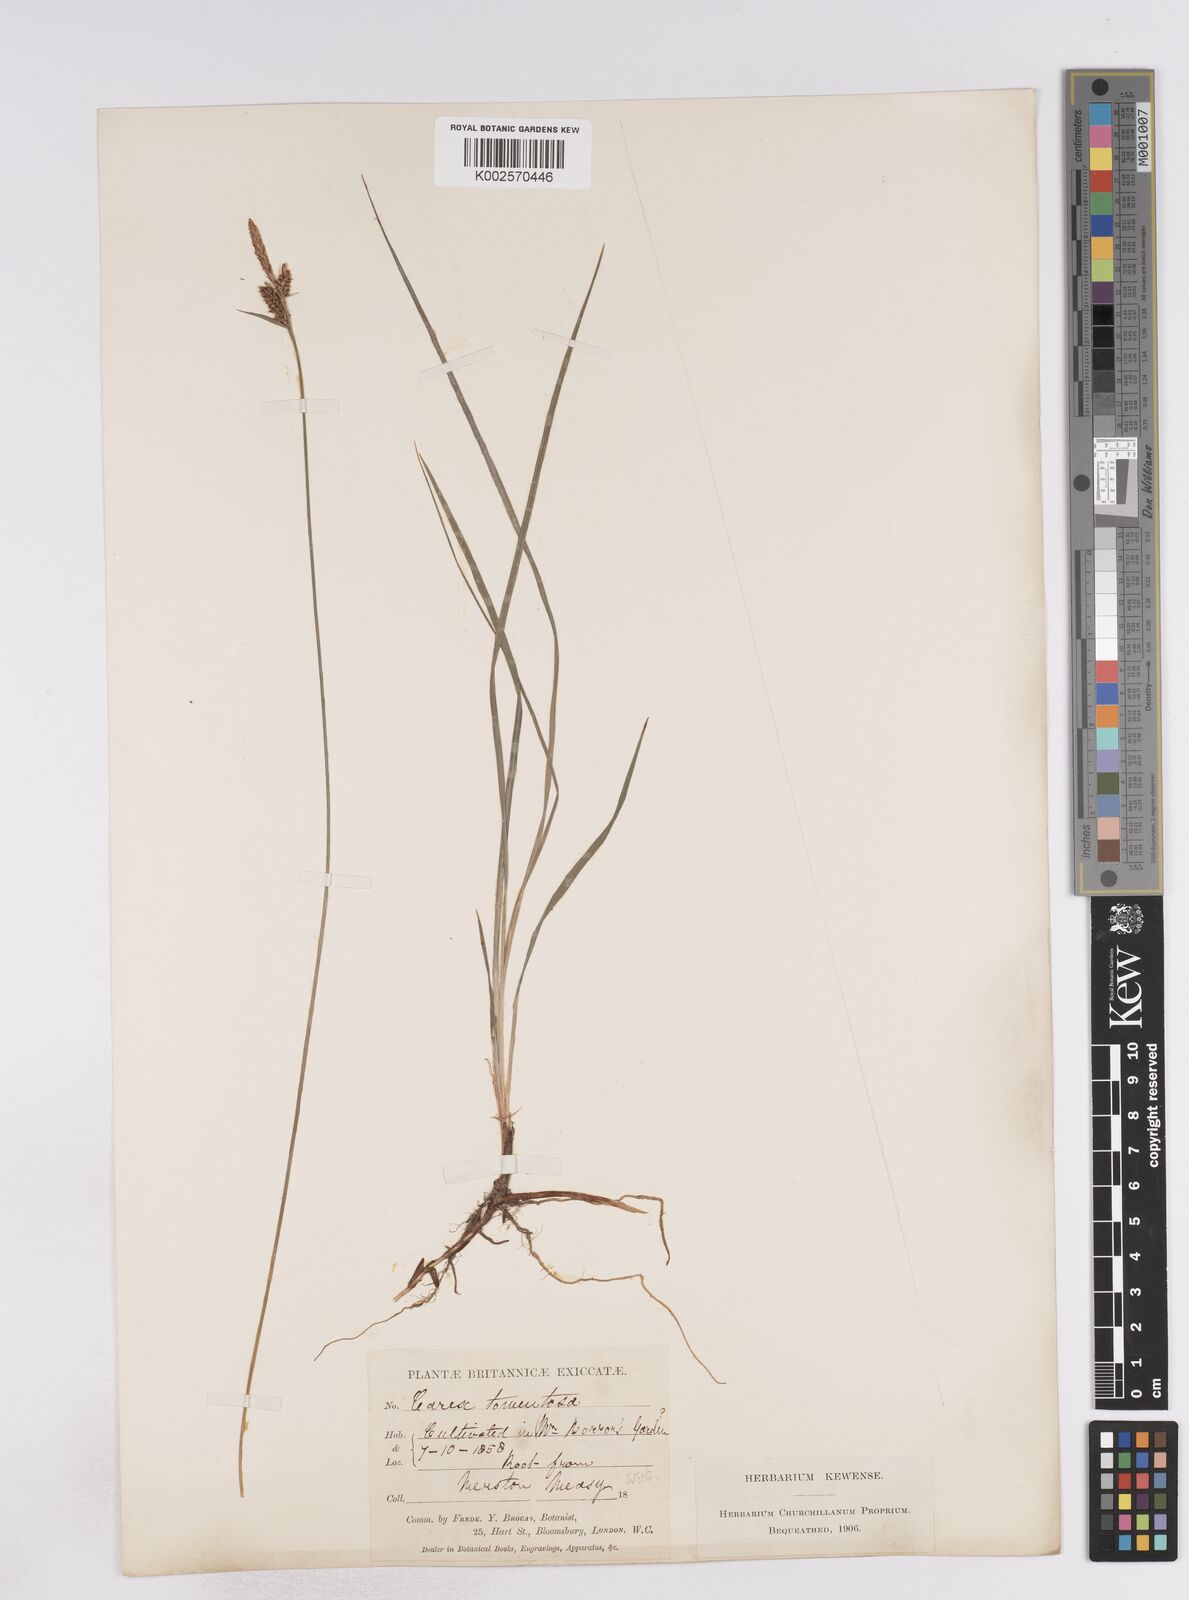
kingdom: Plantae
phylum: Tracheophyta
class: Liliopsida
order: Poales
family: Cyperaceae
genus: Carex
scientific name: Carex montana
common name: Soft-leaved sedge
